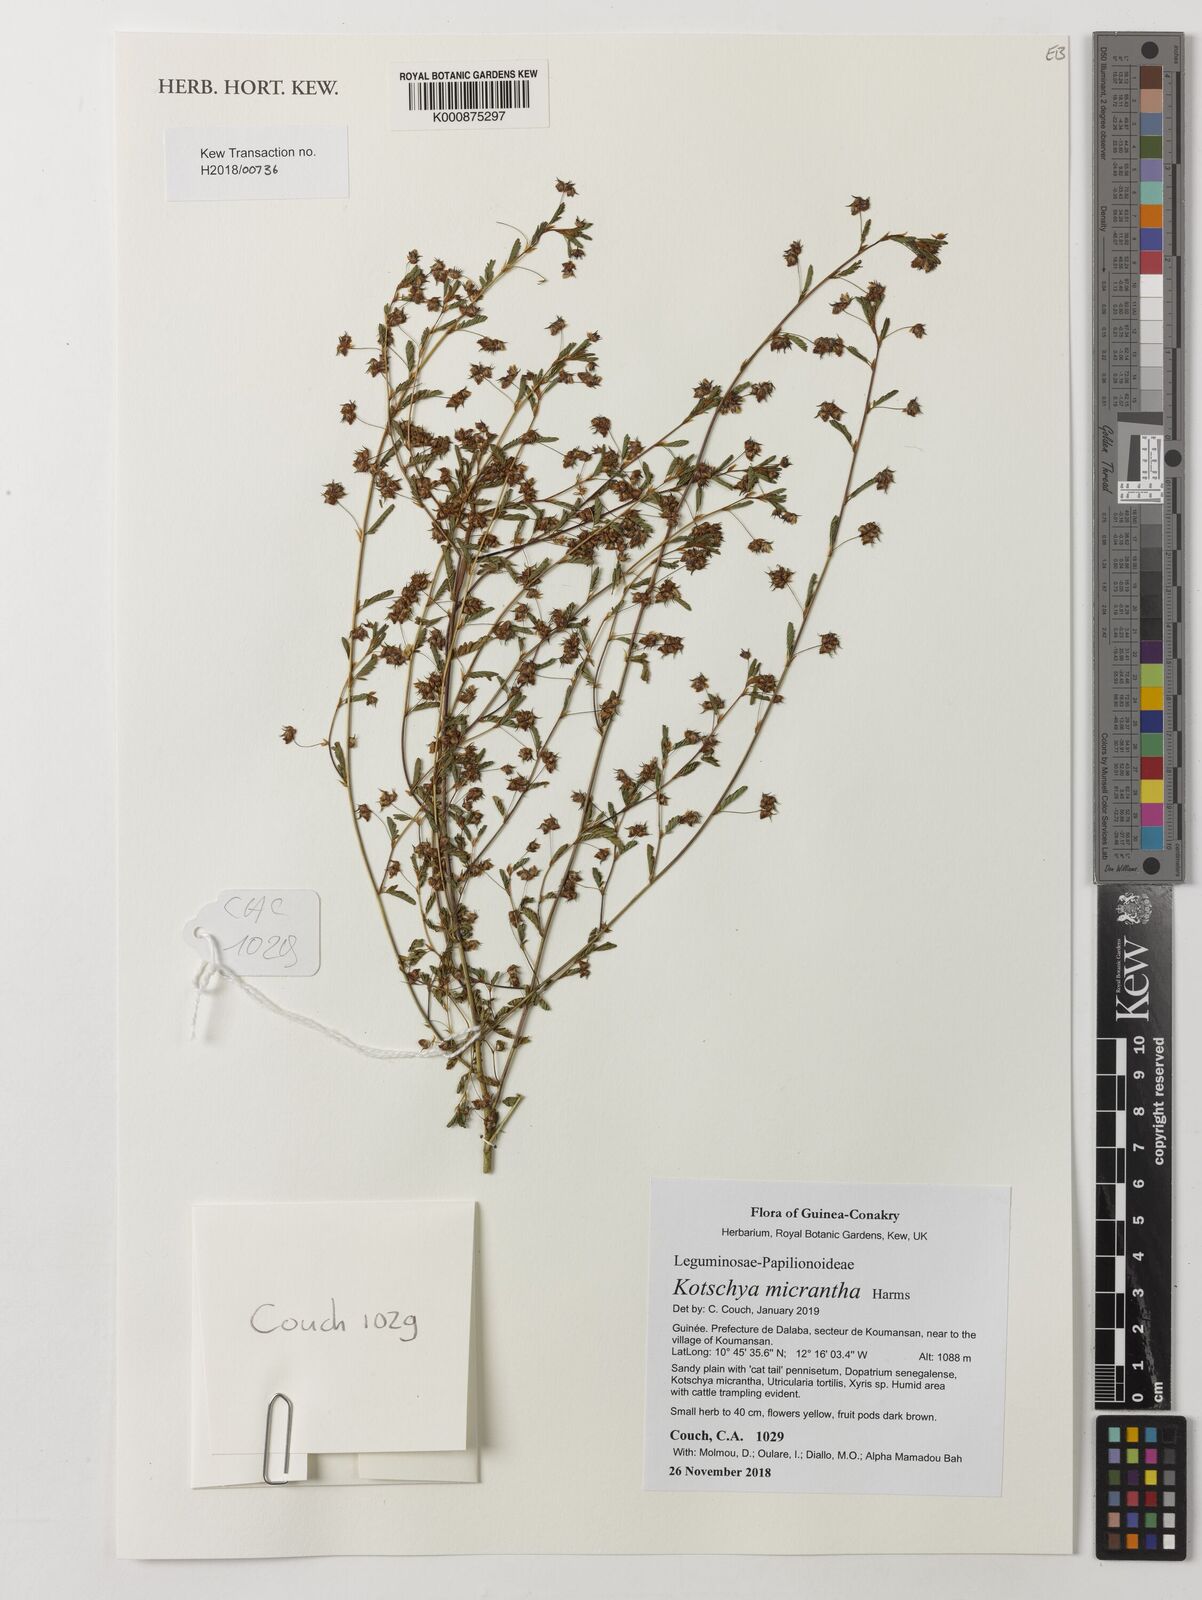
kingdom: Plantae
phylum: Tracheophyta
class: Magnoliopsida
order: Fabales
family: Fabaceae
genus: Kotschya
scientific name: Kotschya micrantha
